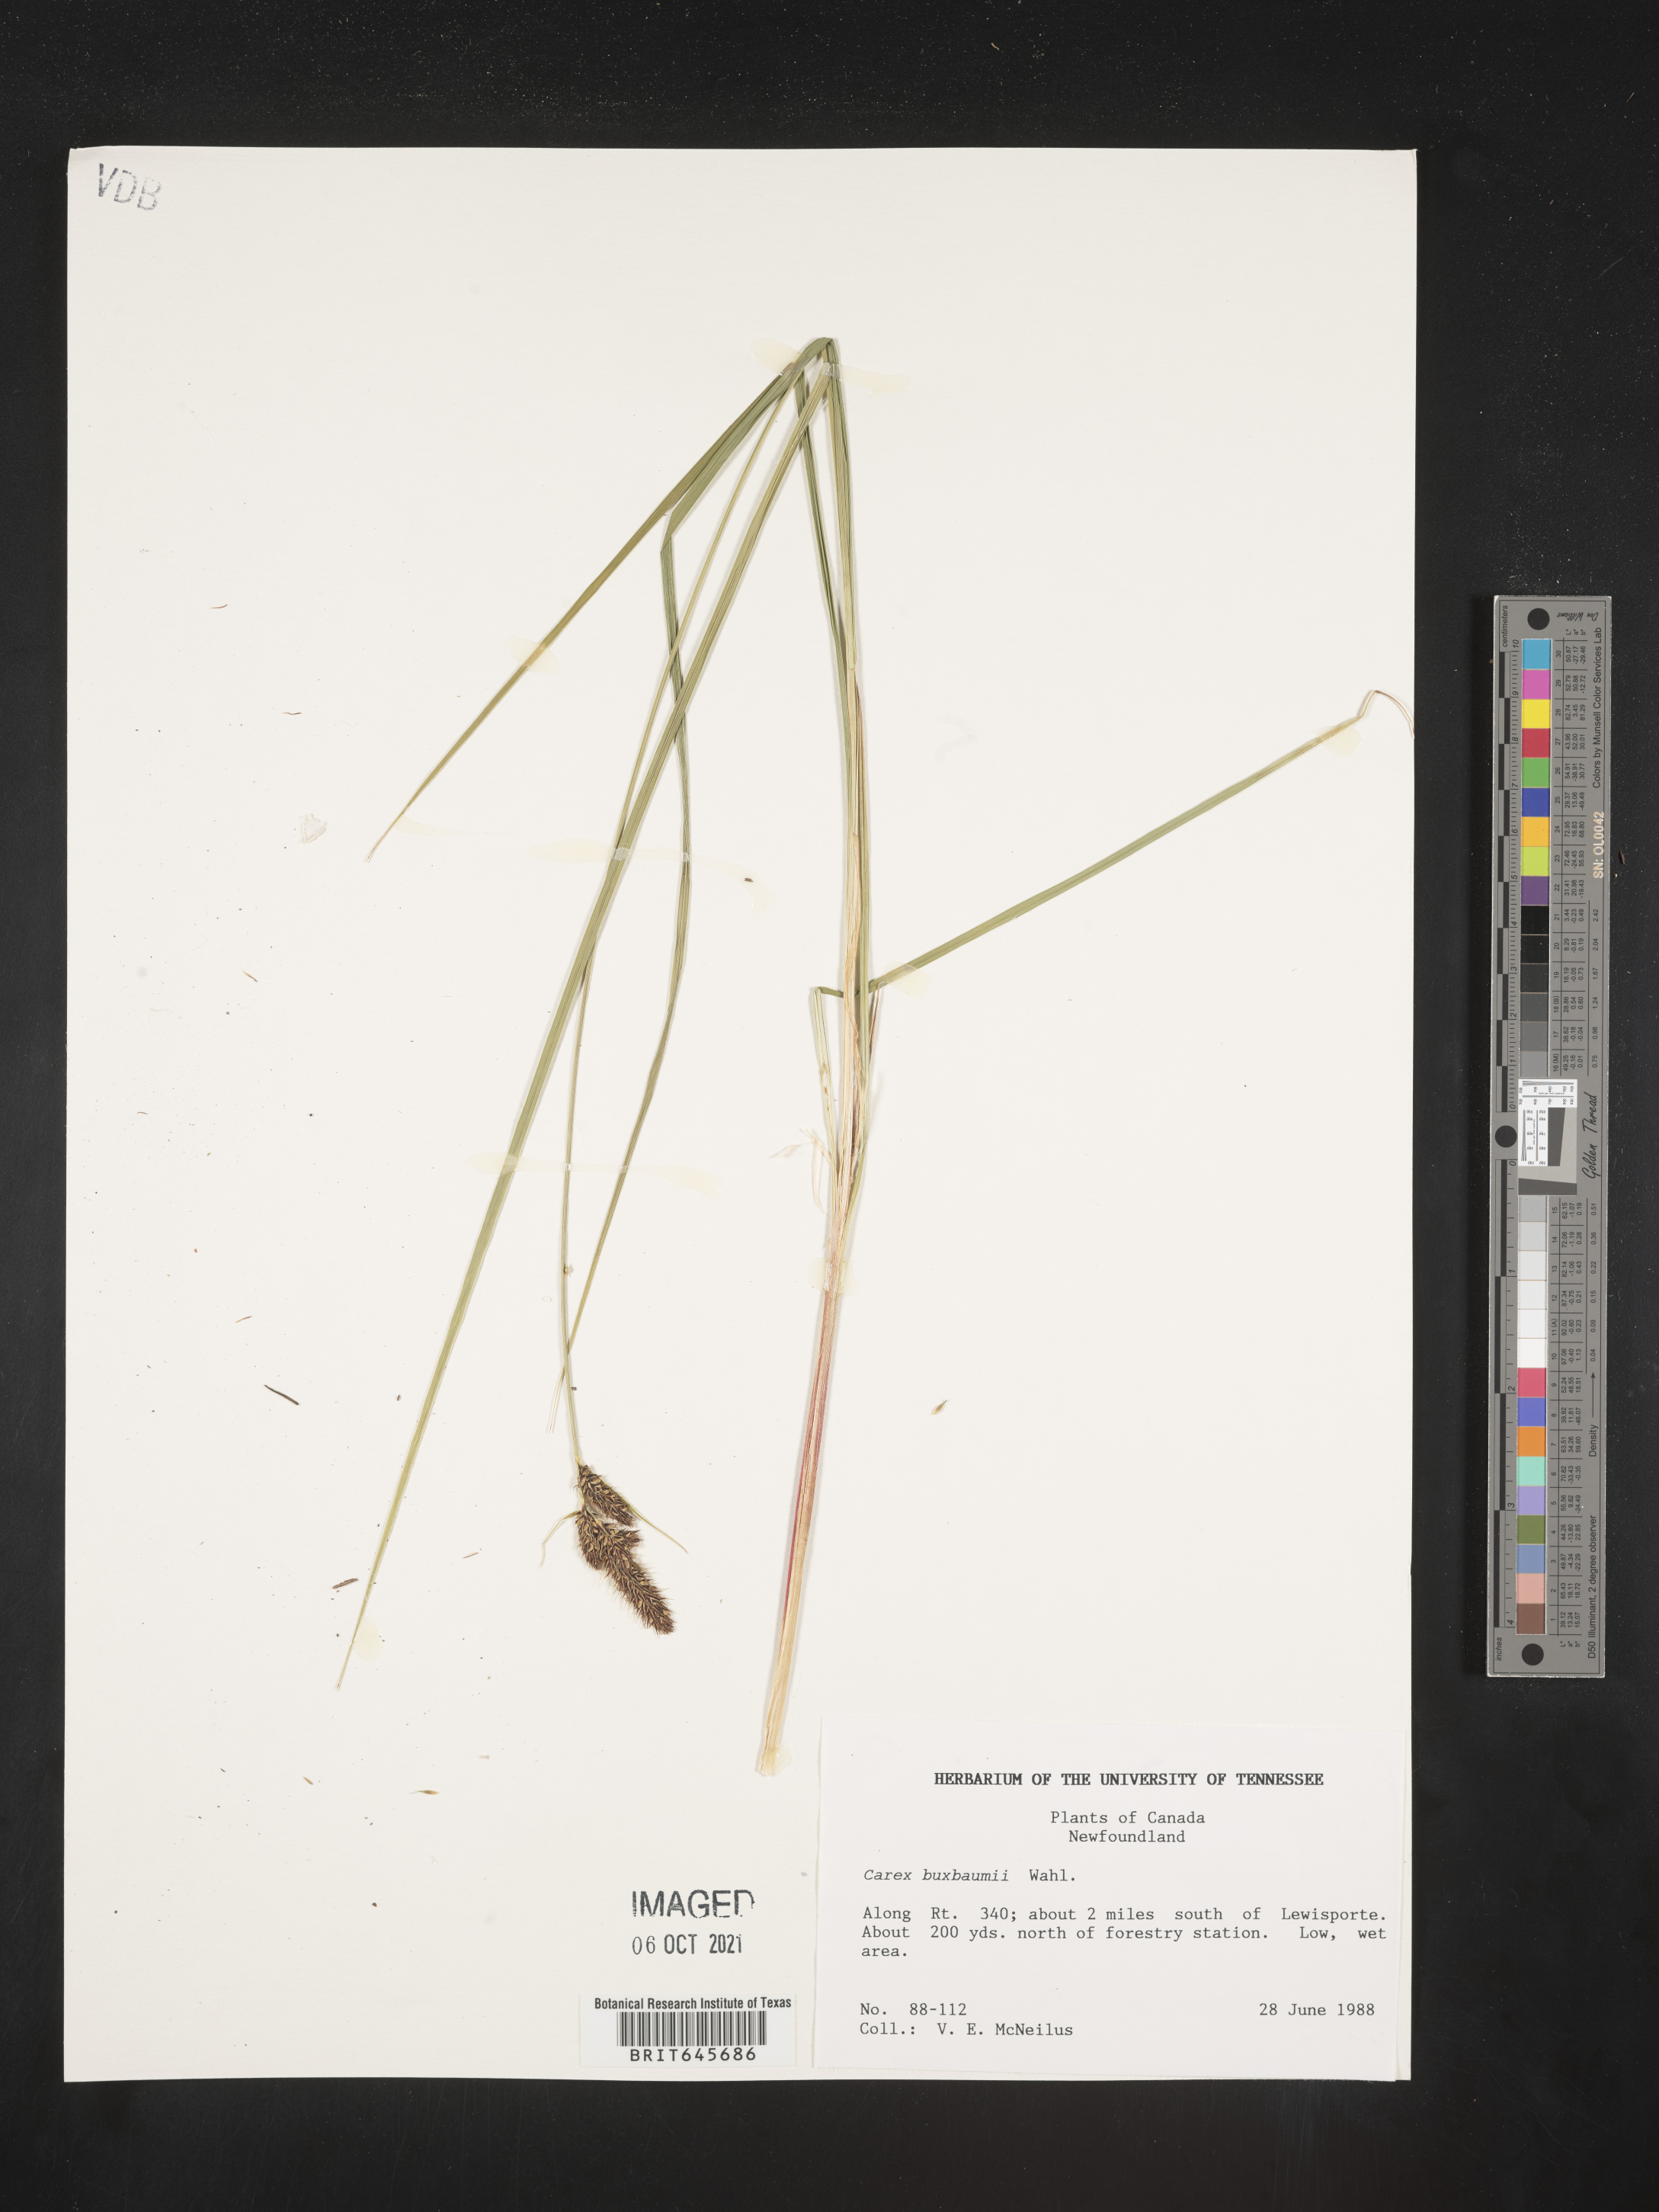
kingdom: Plantae
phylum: Tracheophyta
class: Liliopsida
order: Poales
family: Cyperaceae
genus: Carex
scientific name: Carex buxbaumii
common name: Club sedge
